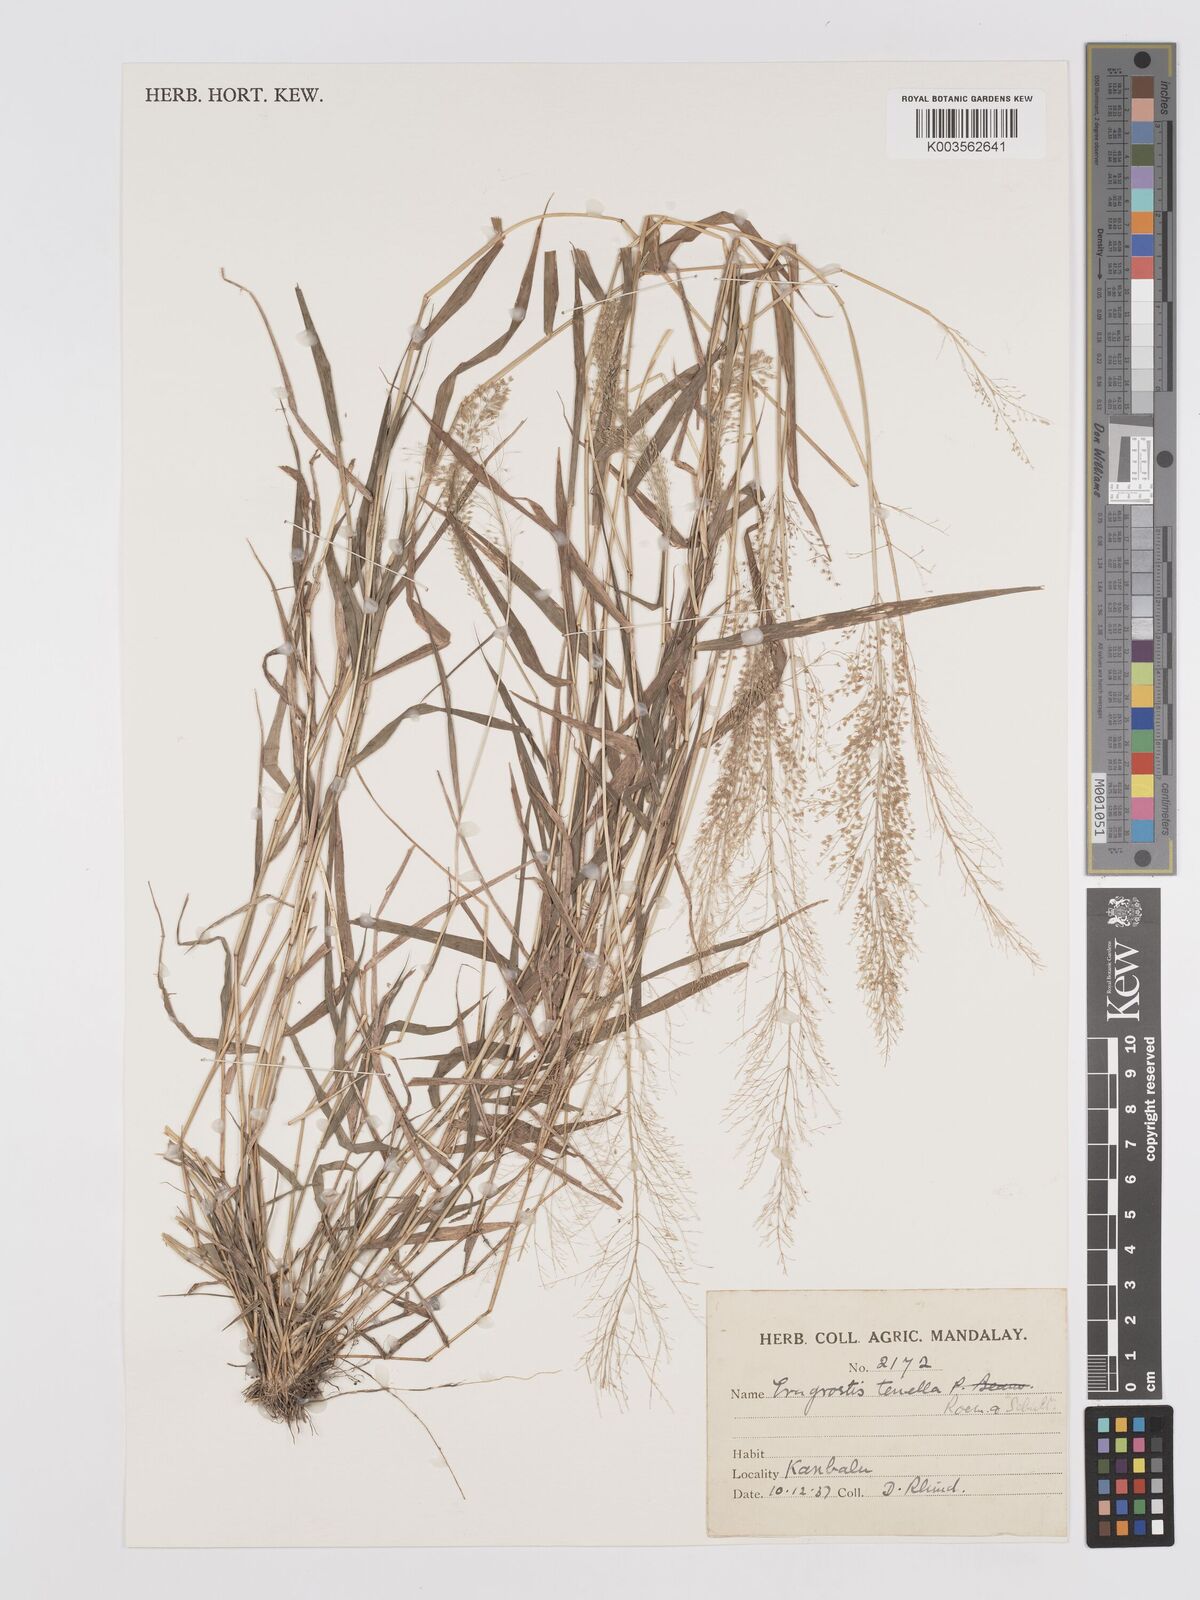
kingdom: Plantae
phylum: Tracheophyta
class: Liliopsida
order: Poales
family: Poaceae
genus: Eragrostis
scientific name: Eragrostis tenella
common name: Japanese lovegrass
